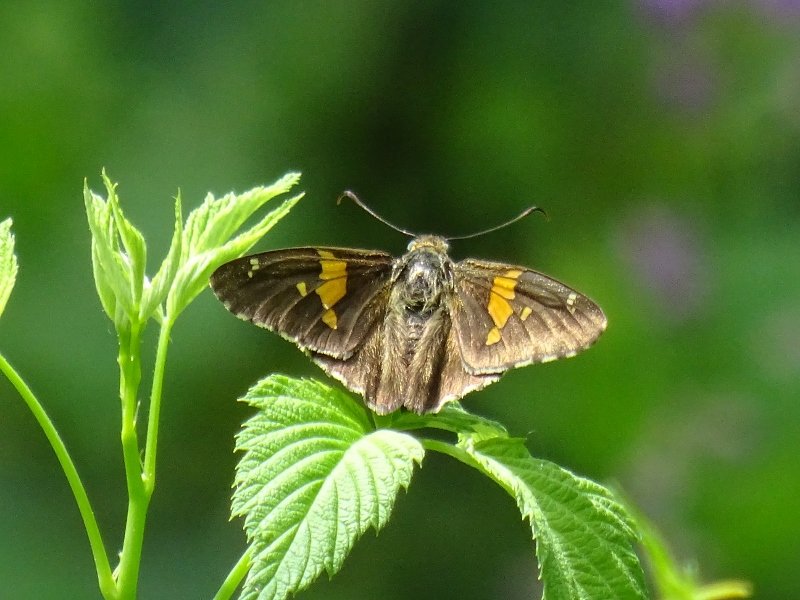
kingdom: Animalia
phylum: Arthropoda
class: Insecta
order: Lepidoptera
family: Hesperiidae
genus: Epargyreus
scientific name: Epargyreus clarus
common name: Silver-spotted Skipper
